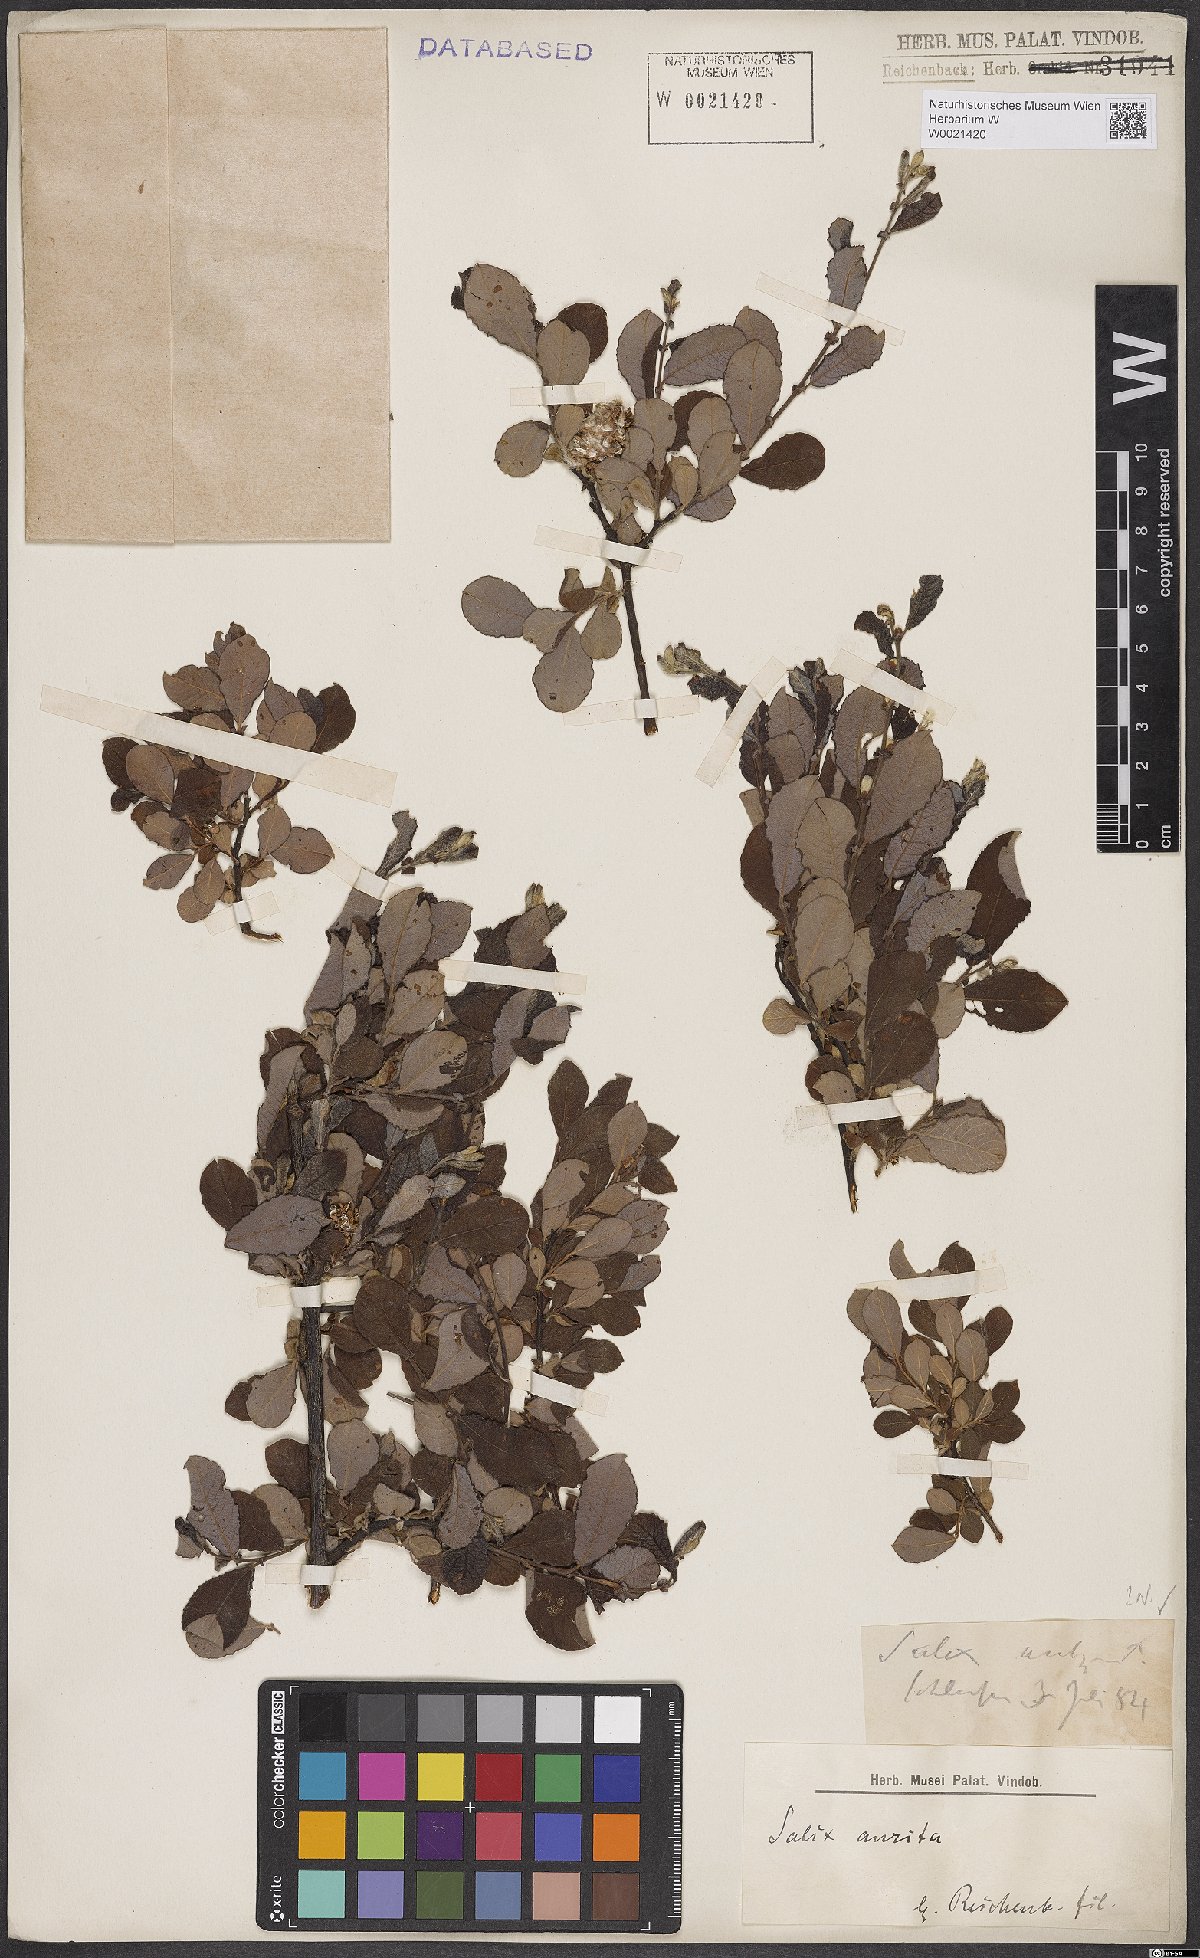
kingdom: Plantae
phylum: Tracheophyta
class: Magnoliopsida
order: Malpighiales
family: Salicaceae
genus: Salix
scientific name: Salix aurita
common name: Eared willow
